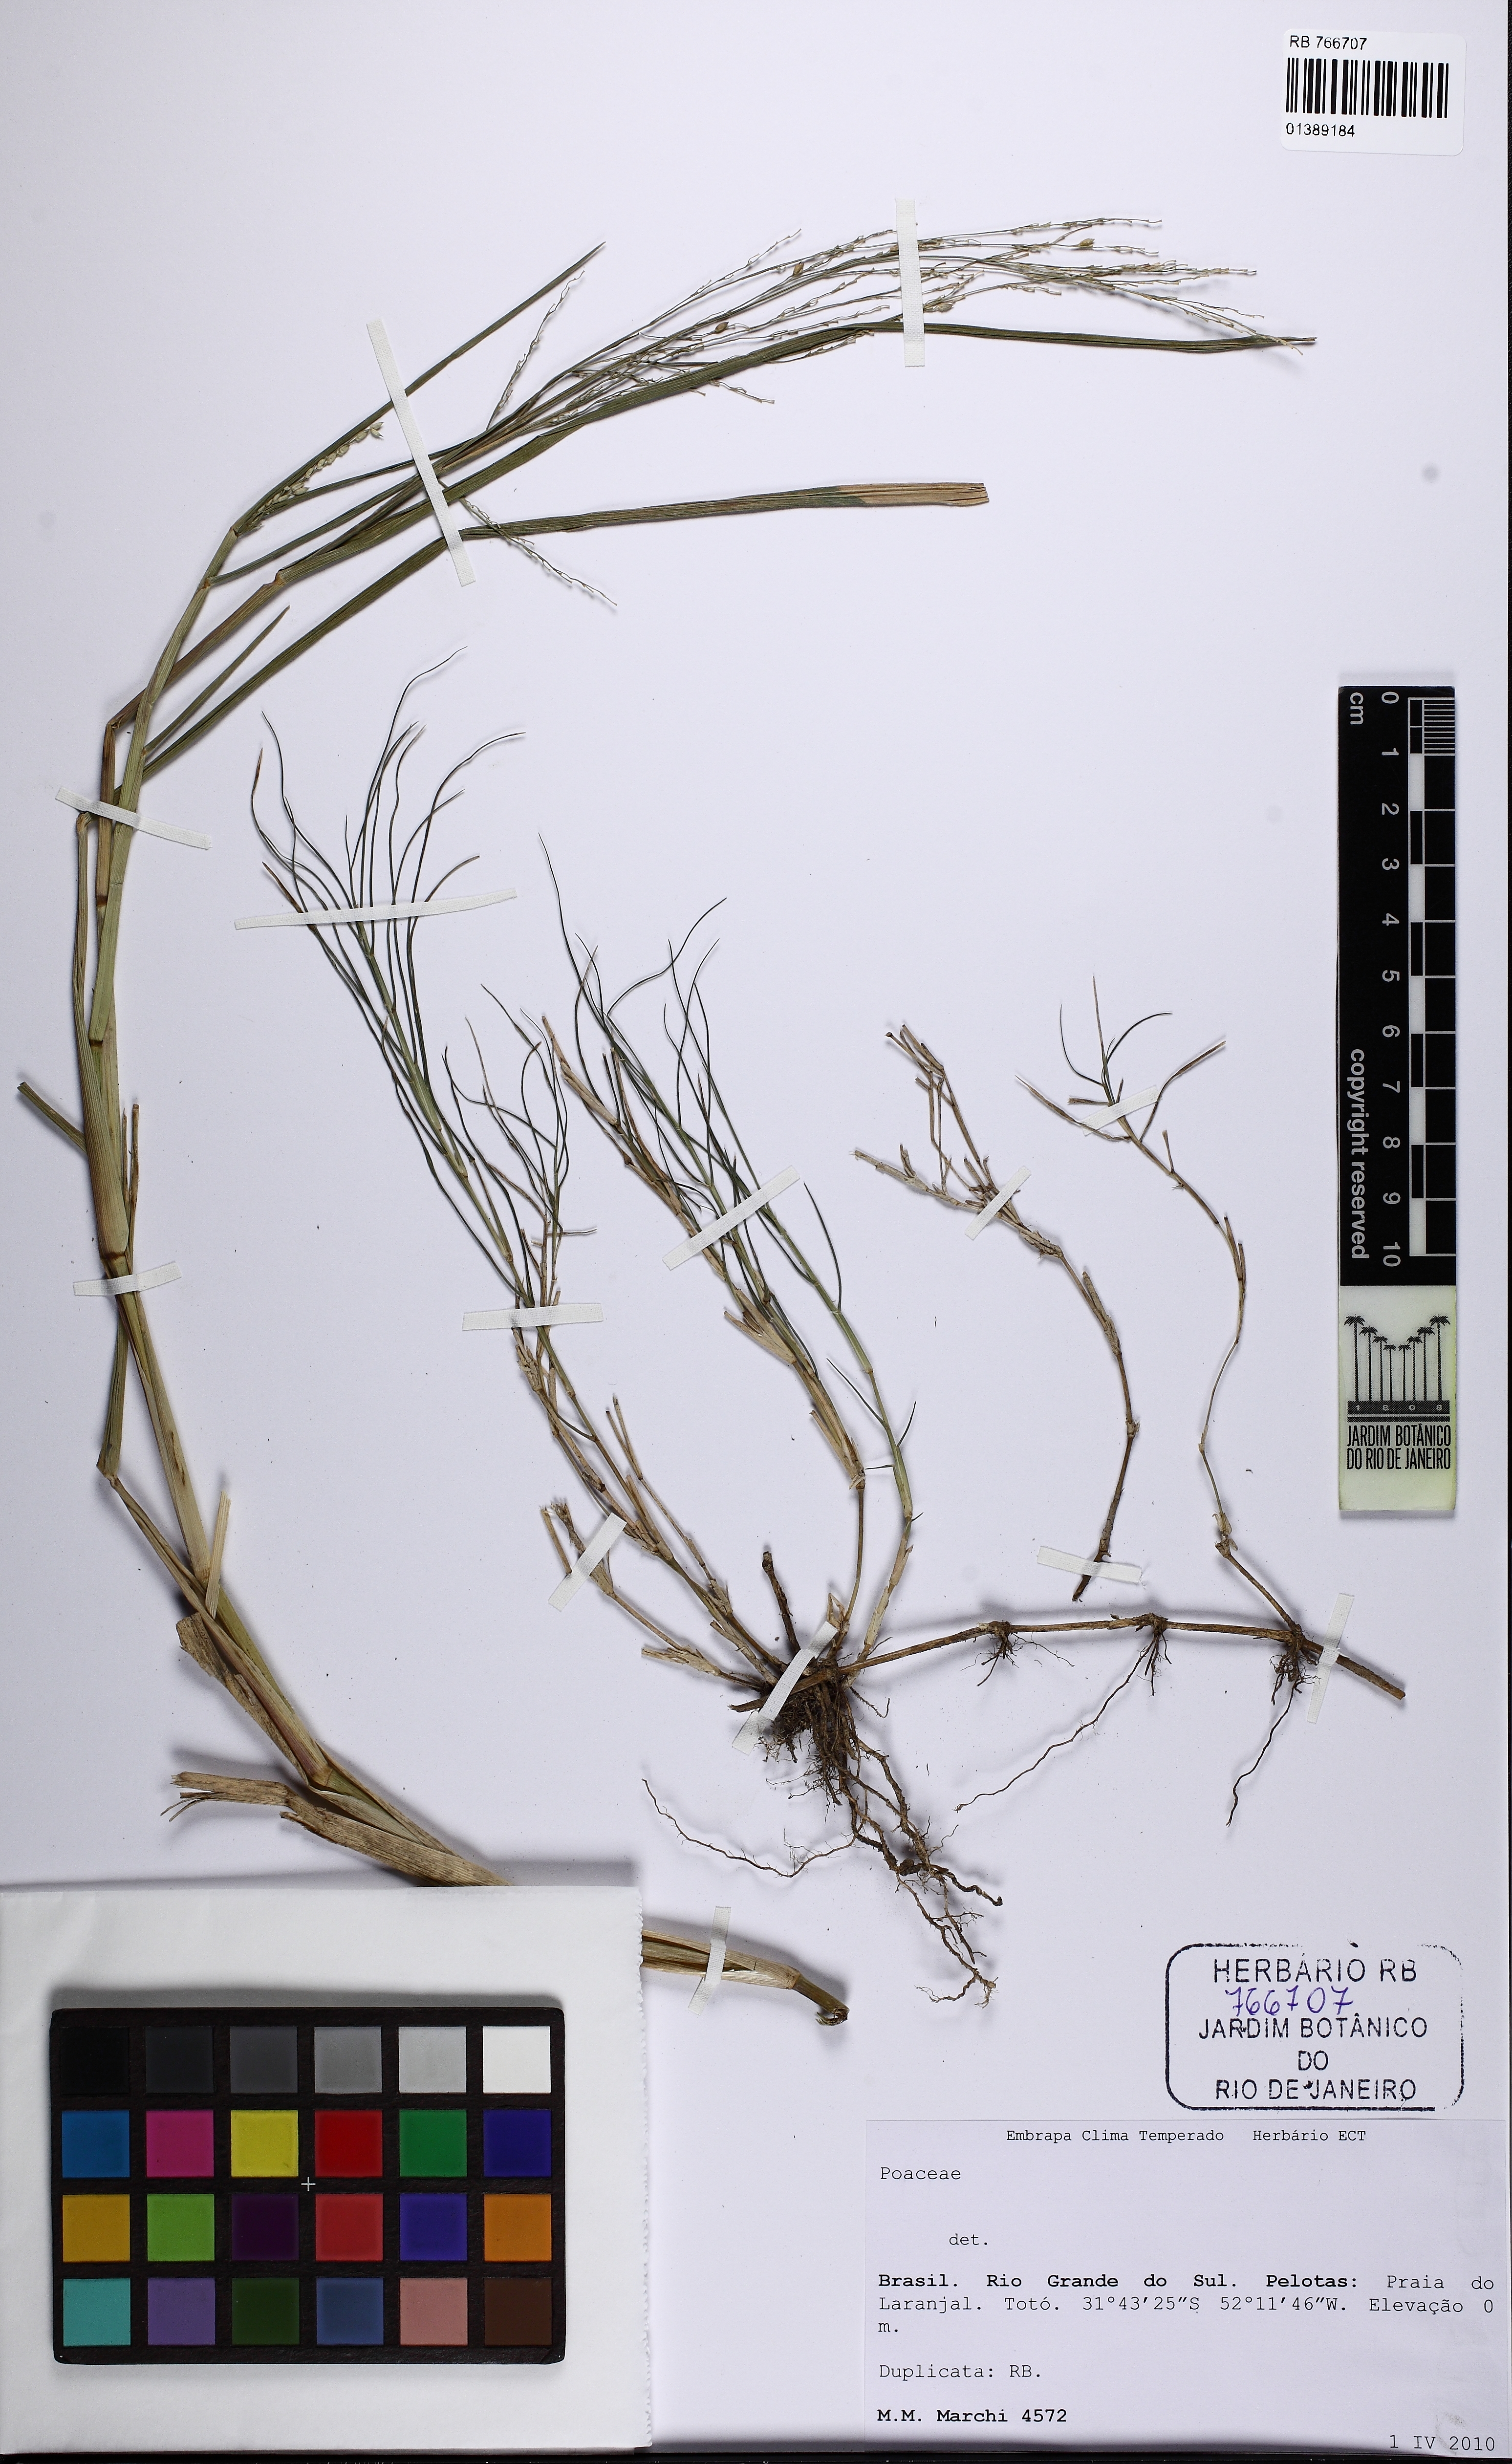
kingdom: Plantae
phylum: Tracheophyta
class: Liliopsida
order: Poales
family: Poaceae
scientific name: Poaceae
